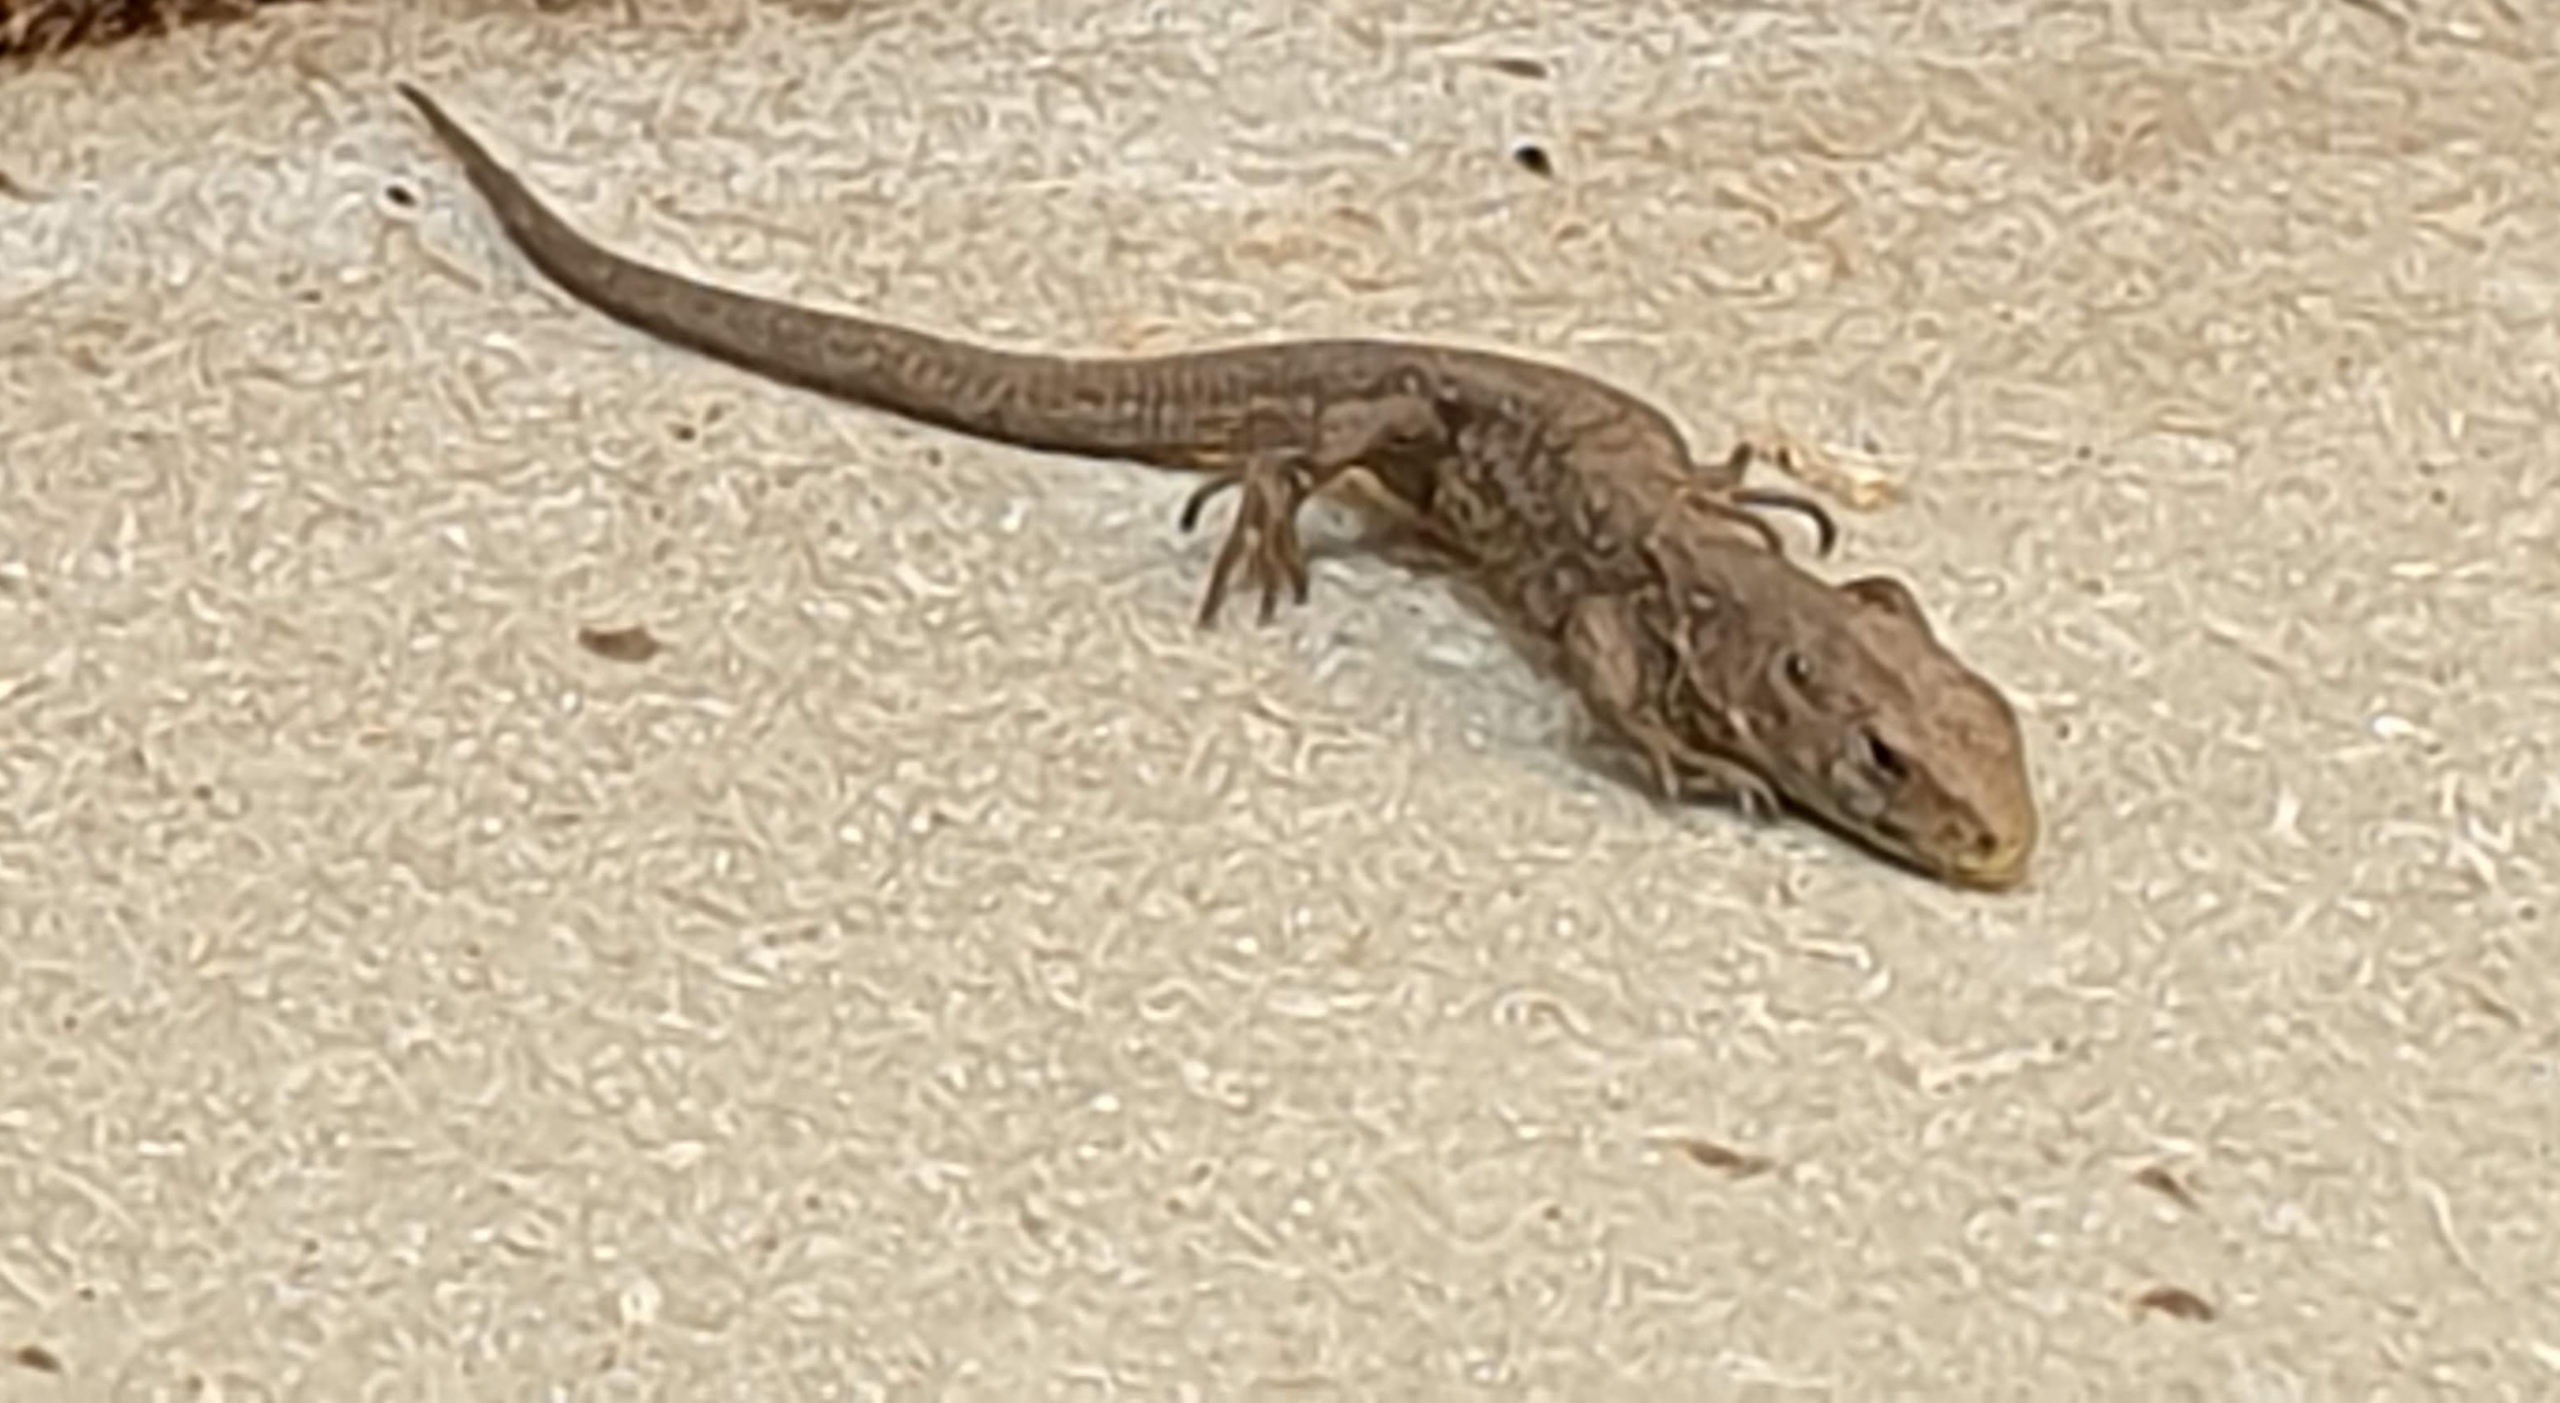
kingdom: Animalia
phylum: Chordata
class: Squamata
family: Lacertidae
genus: Lacerta
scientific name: Lacerta agilis
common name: Markfirben
